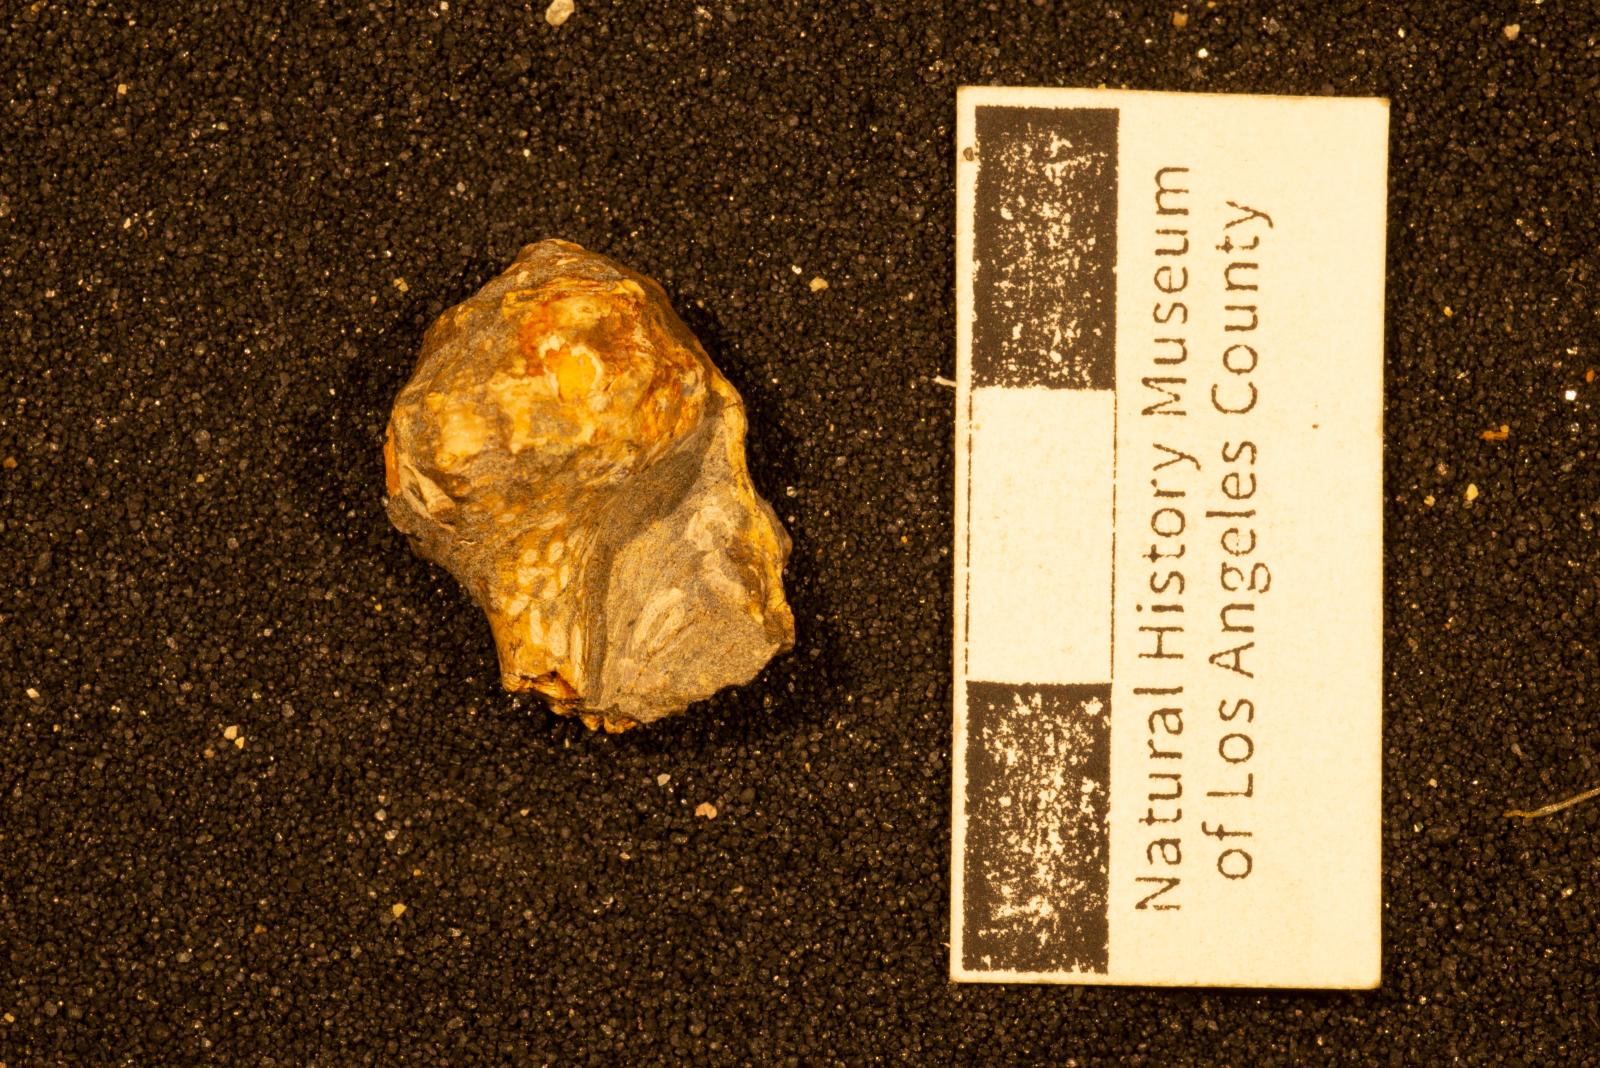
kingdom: Animalia
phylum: Mollusca
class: Gastropoda
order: Neogastropoda
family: Perissityidae
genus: Perissitys
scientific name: Perissitys Perissolax brevirostris
